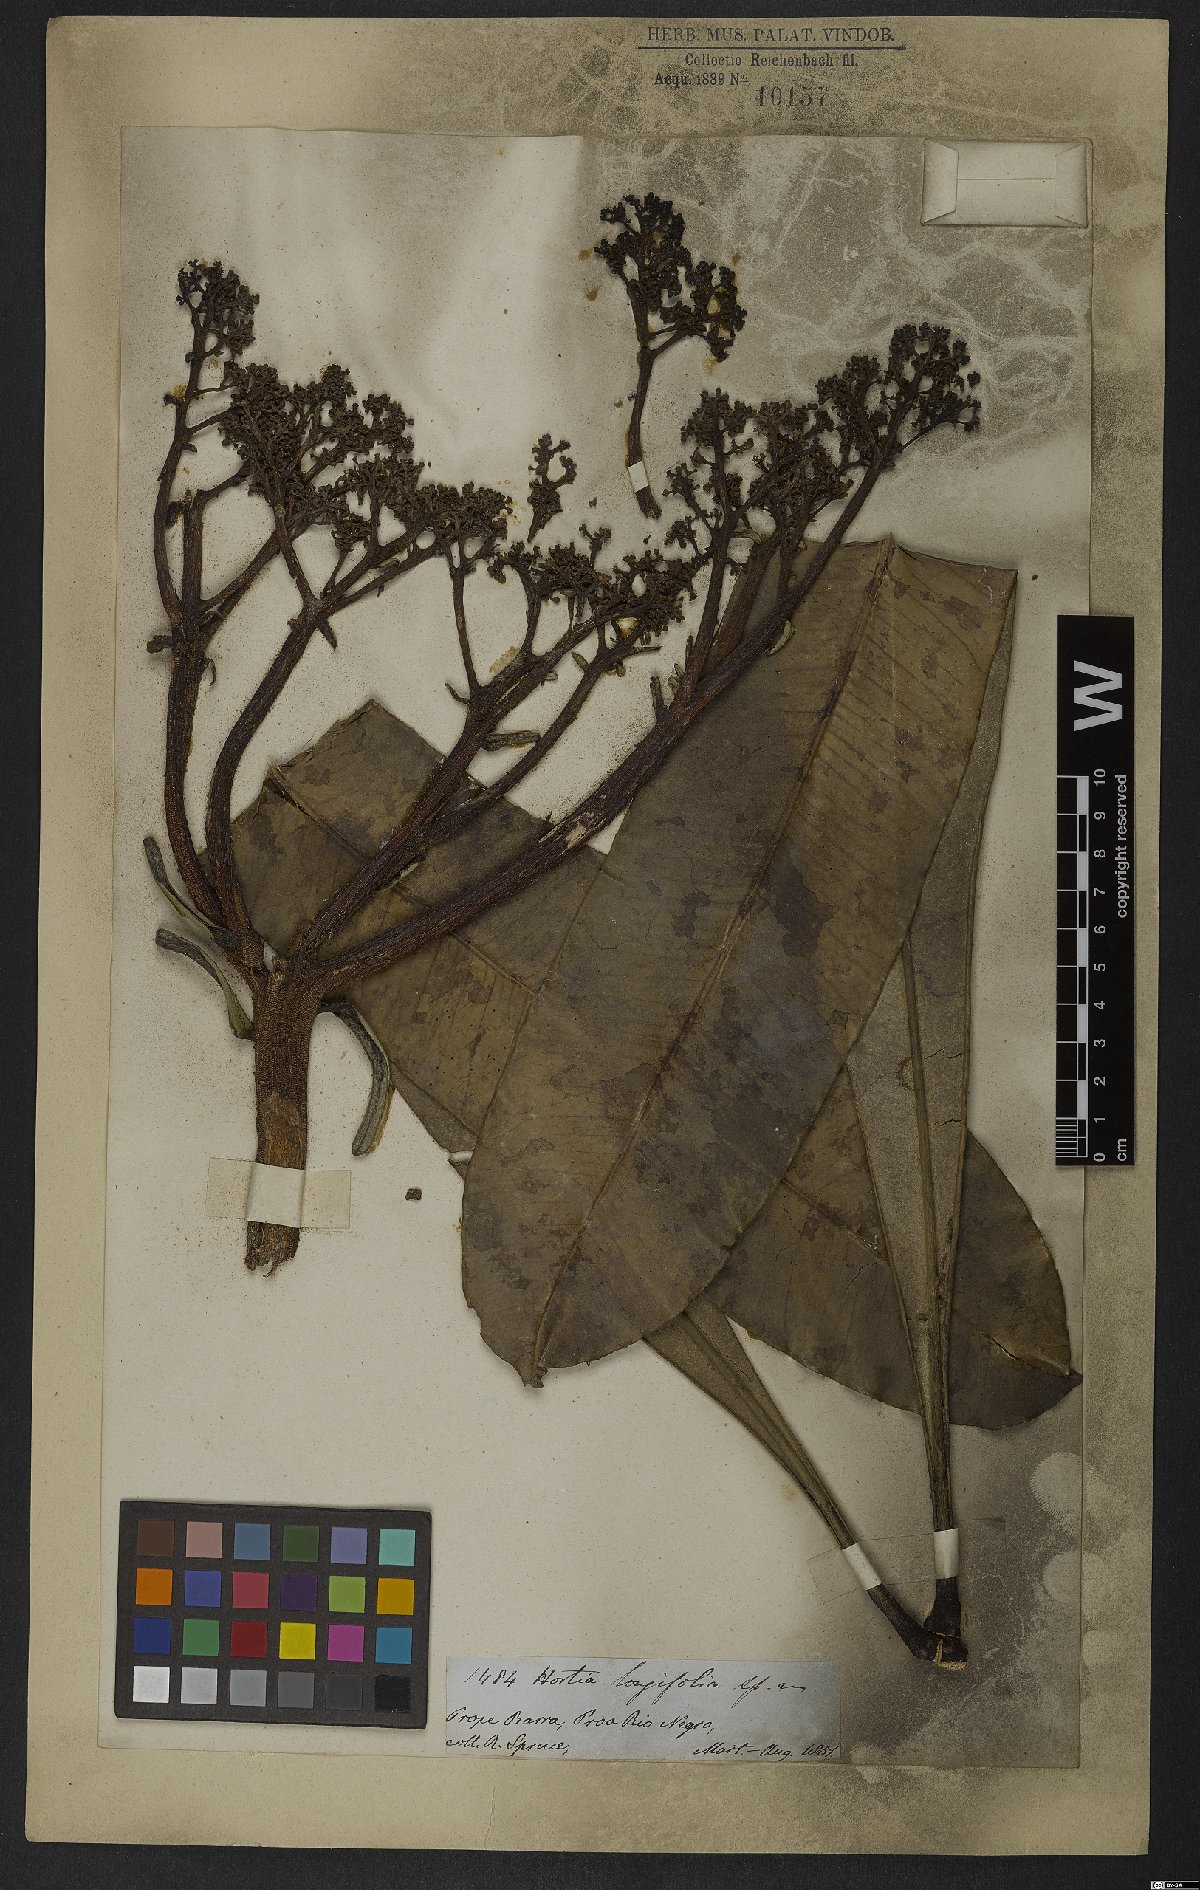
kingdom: Plantae
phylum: Tracheophyta
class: Magnoliopsida
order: Sapindales
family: Rutaceae
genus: Hortia
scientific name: Hortia longifolia
